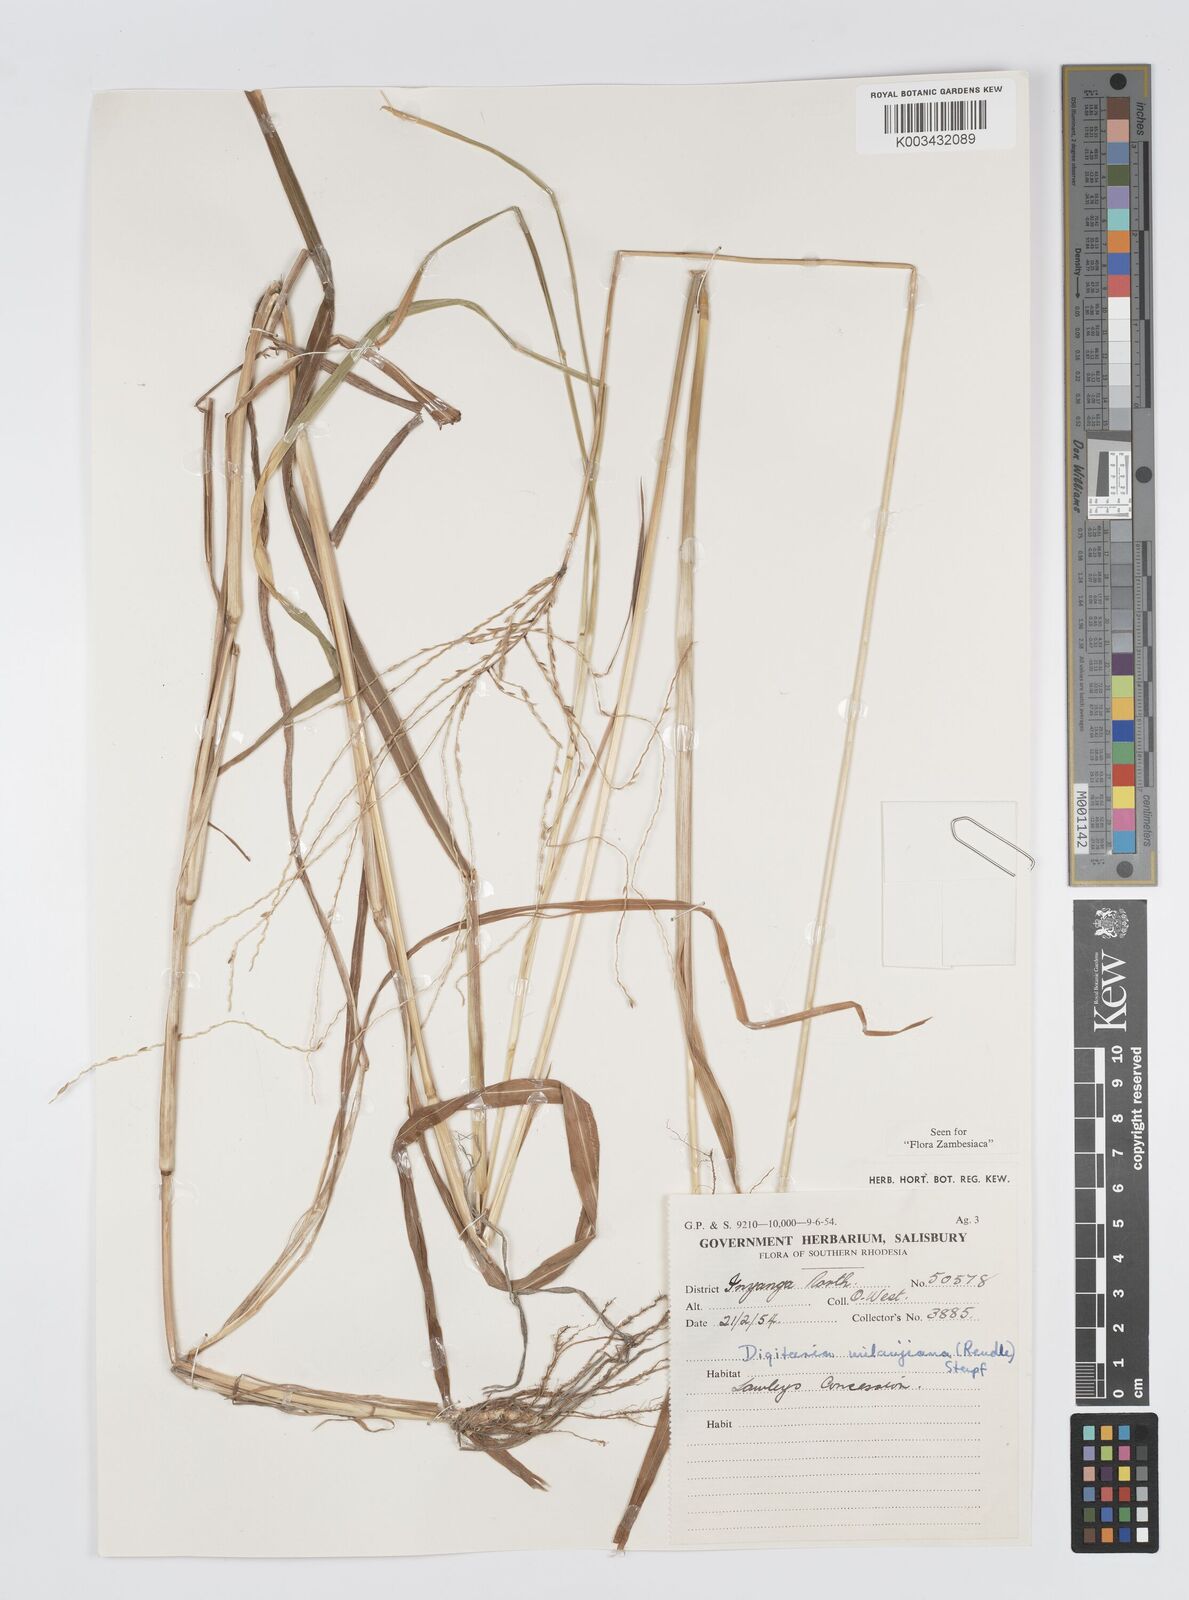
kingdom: Plantae
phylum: Tracheophyta
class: Liliopsida
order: Poales
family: Poaceae
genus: Digitaria
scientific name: Digitaria milanjiana
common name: Madagascar crabgrass
